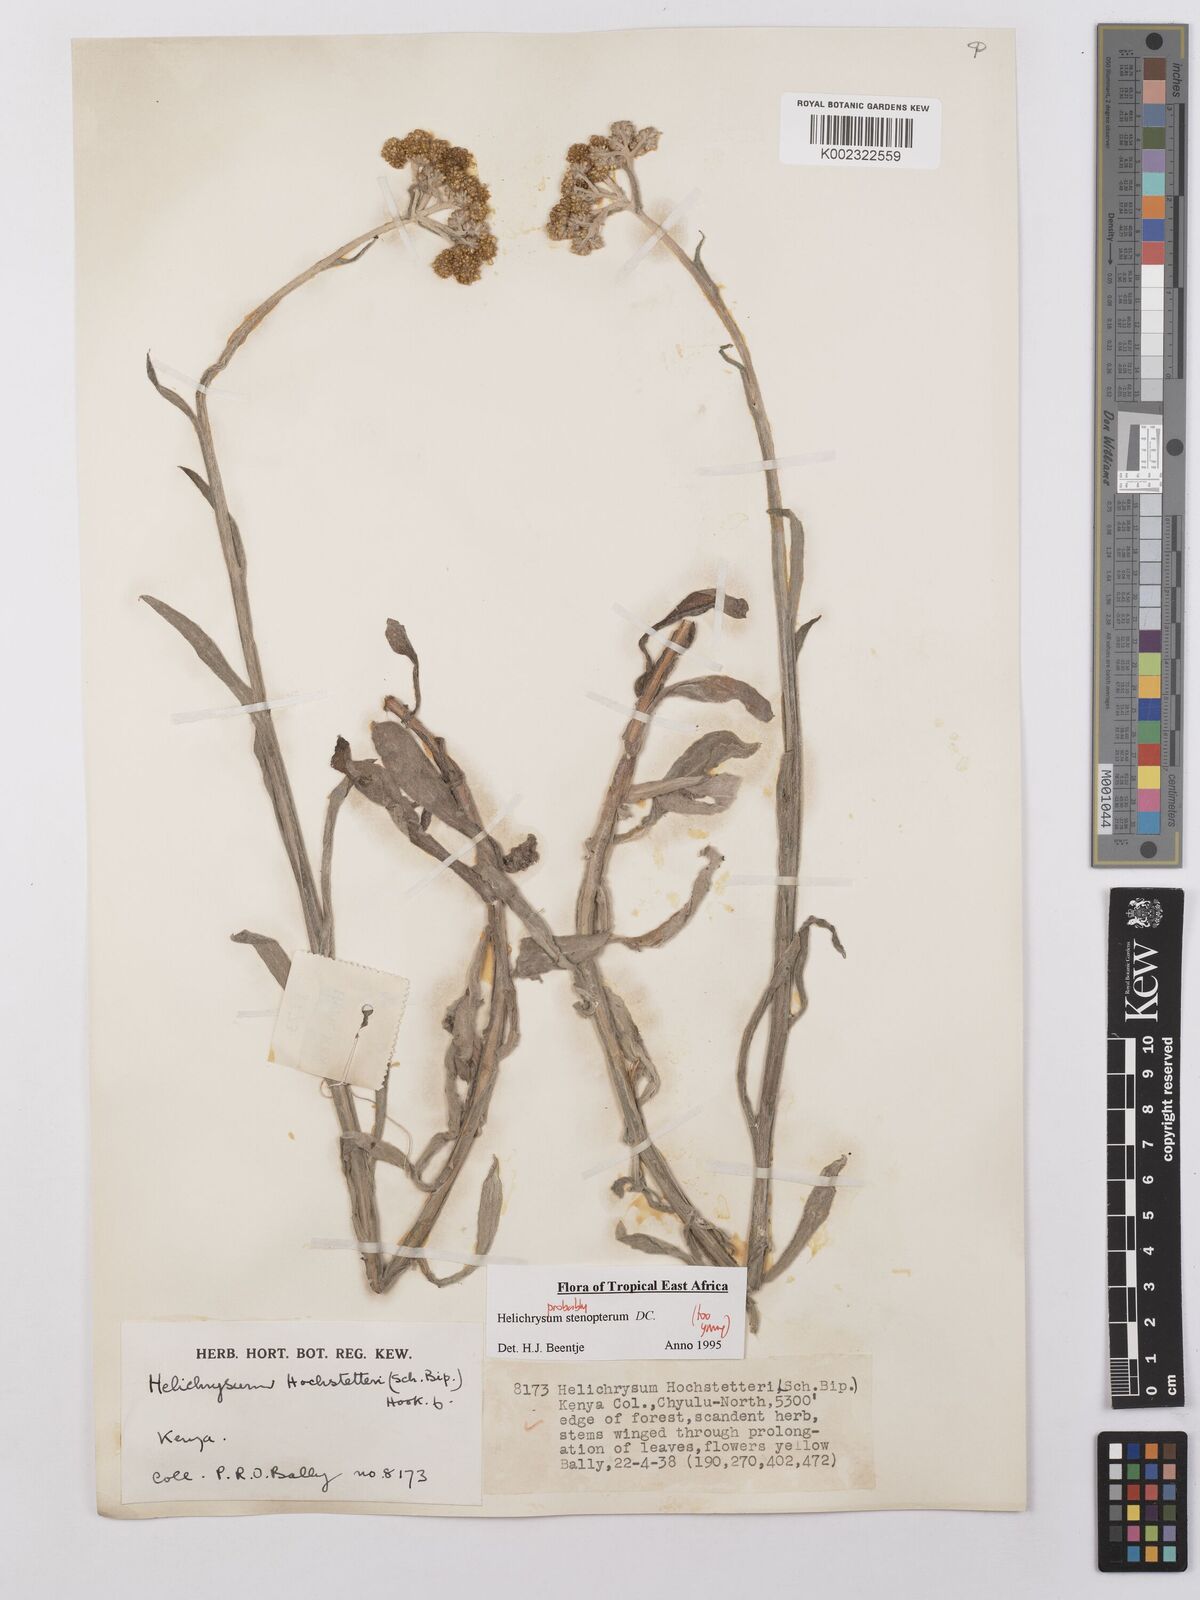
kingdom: Plantae
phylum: Tracheophyta
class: Magnoliopsida
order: Asterales
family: Asteraceae
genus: Helichrysum
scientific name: Helichrysum stenopterum
